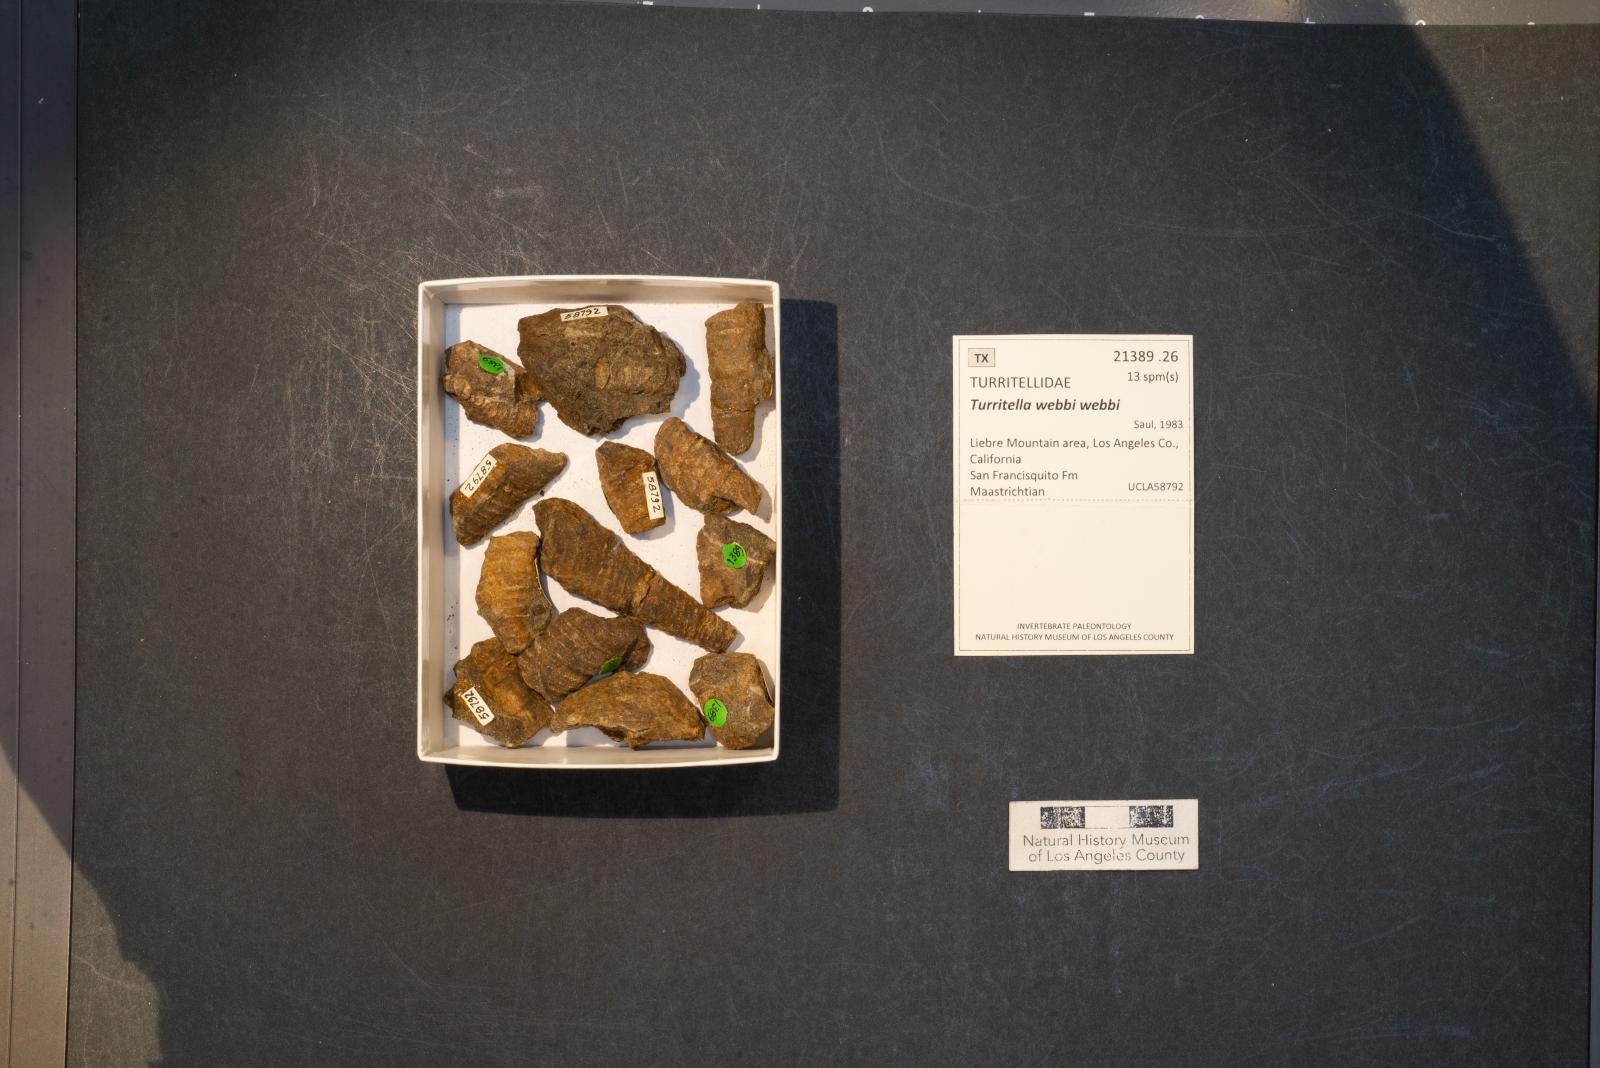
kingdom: Animalia
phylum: Mollusca
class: Gastropoda
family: Turritellidae
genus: Turritella
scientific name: Turritella
